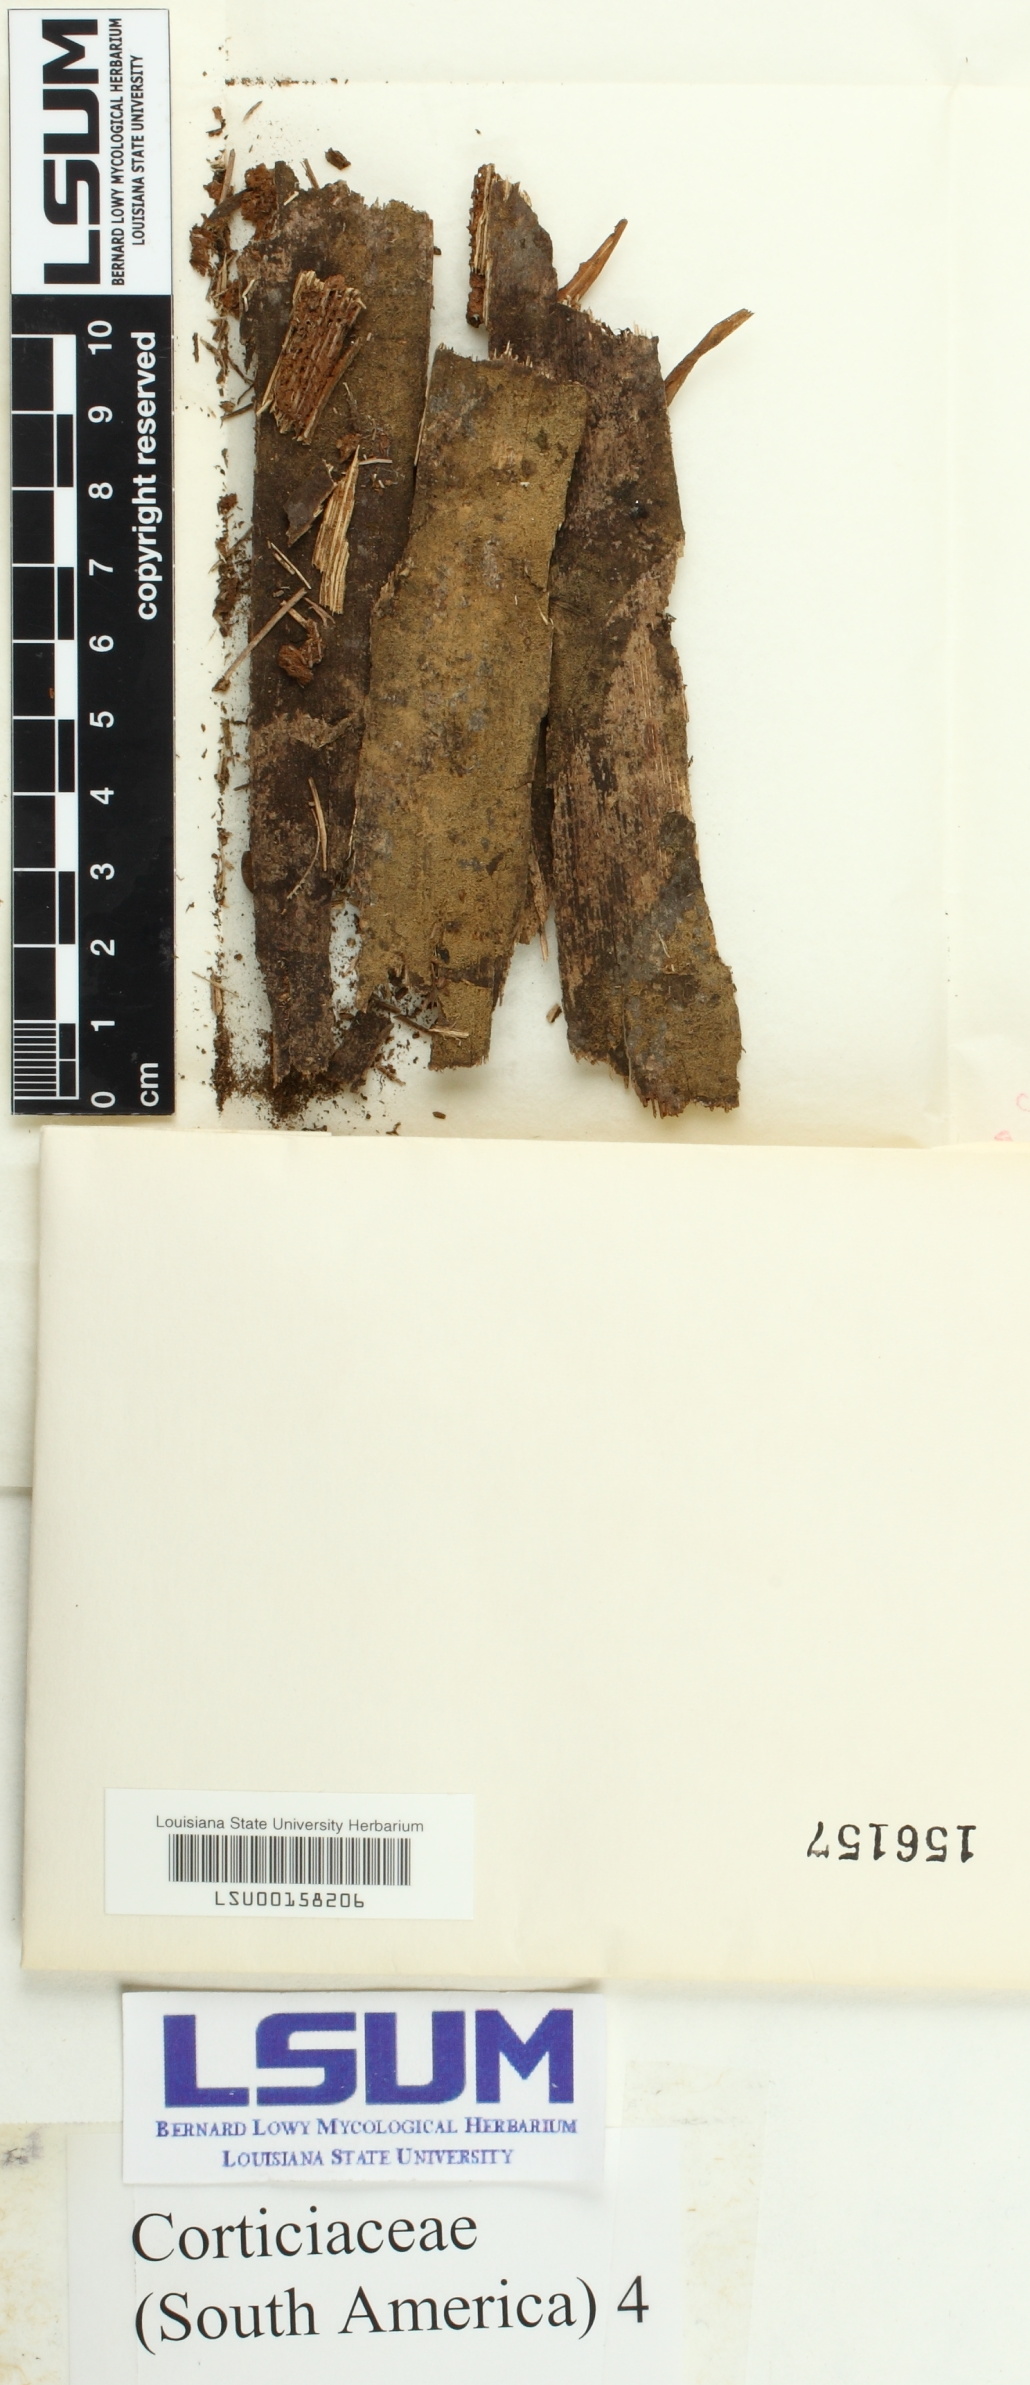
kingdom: Fungi
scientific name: Fungi
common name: Fungi
